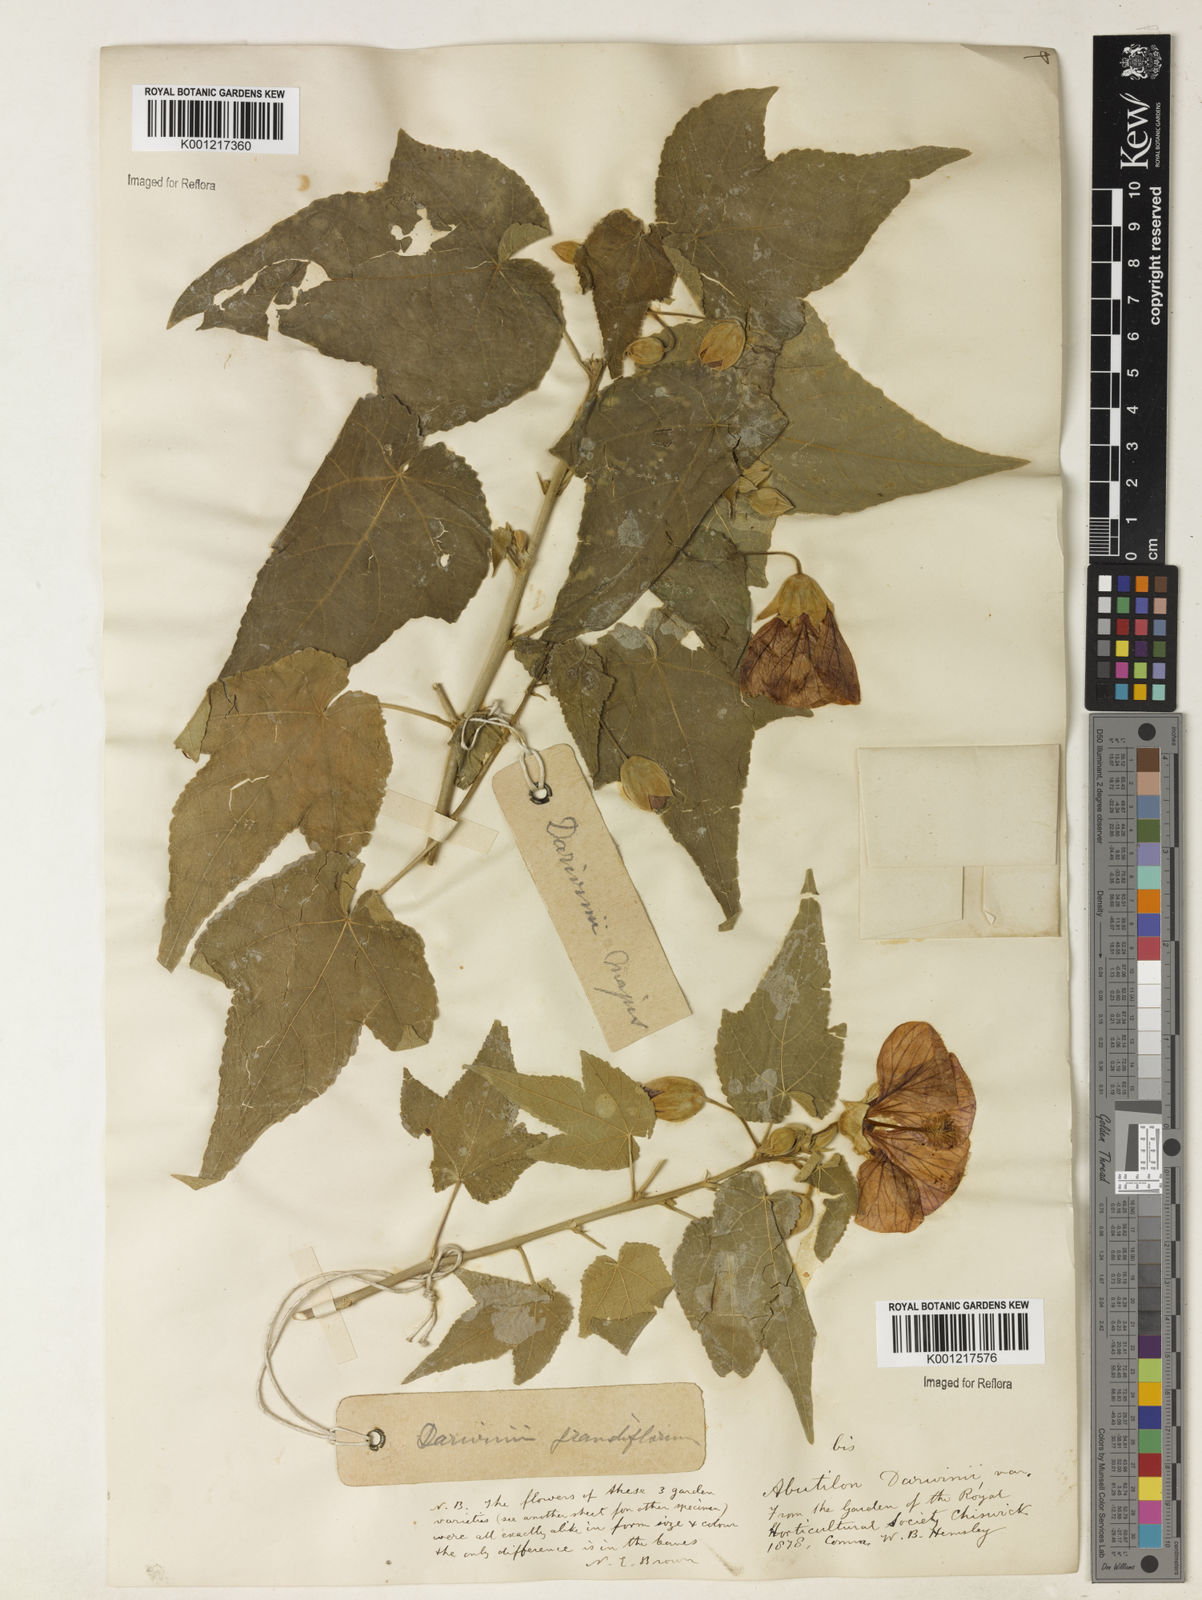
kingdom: Plantae
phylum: Tracheophyta
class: Magnoliopsida
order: Malvales
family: Malvaceae
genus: Callianthe
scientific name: Callianthe darwinii
